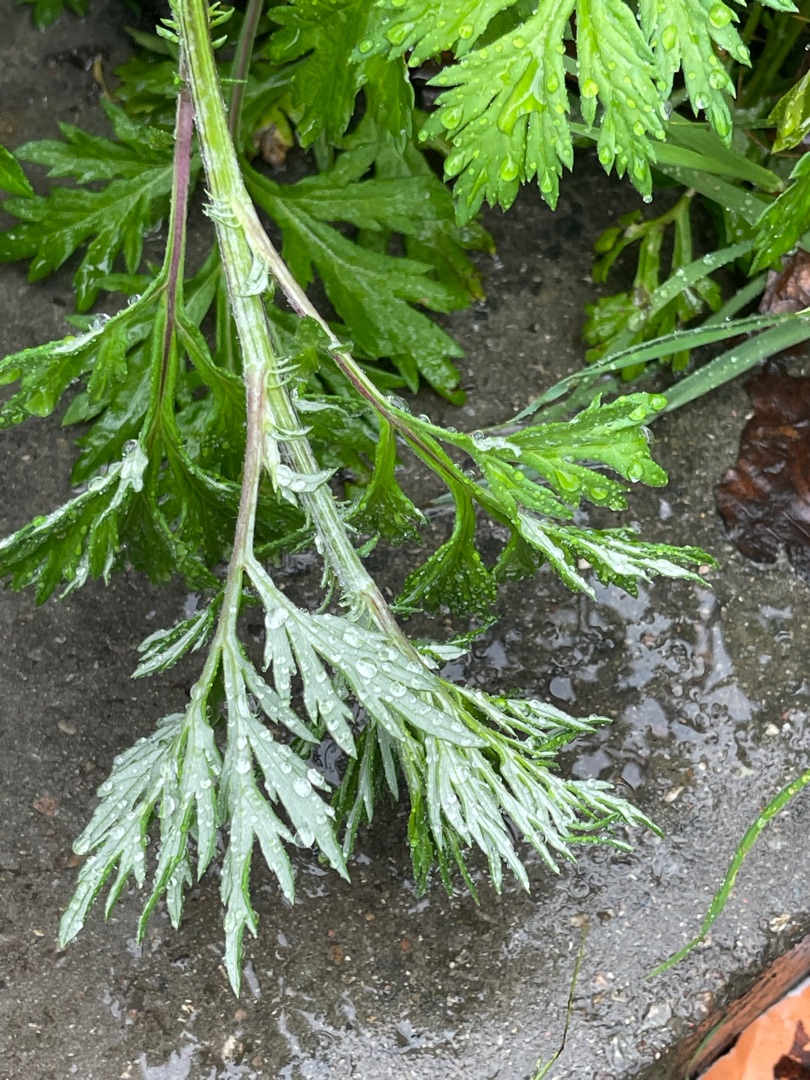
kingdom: Plantae
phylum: Tracheophyta
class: Magnoliopsida
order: Asterales
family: Asteraceae
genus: Artemisia
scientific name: Artemisia vulgaris
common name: Grå-bynke
